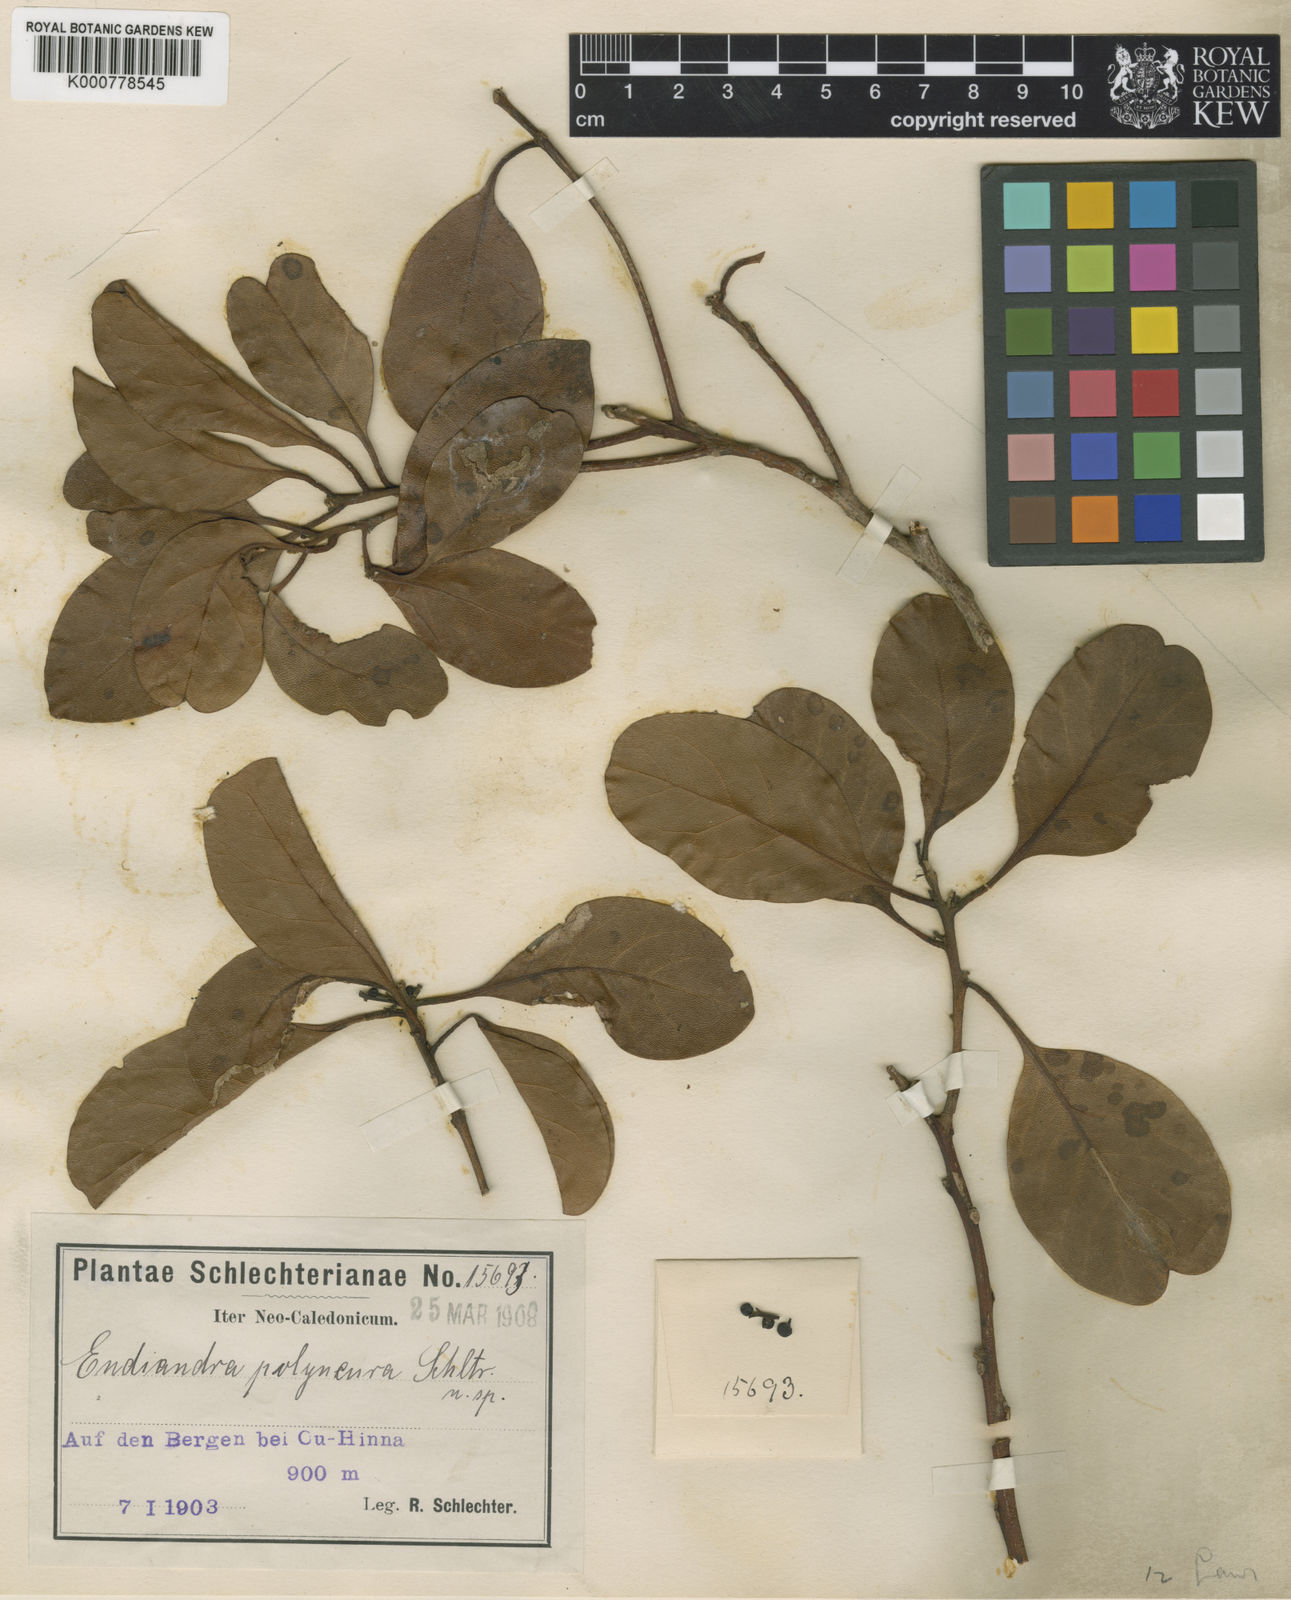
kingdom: Plantae
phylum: Tracheophyta
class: Magnoliopsida
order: Laurales
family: Lauraceae
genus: Endiandra
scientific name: Endiandra polyneura
